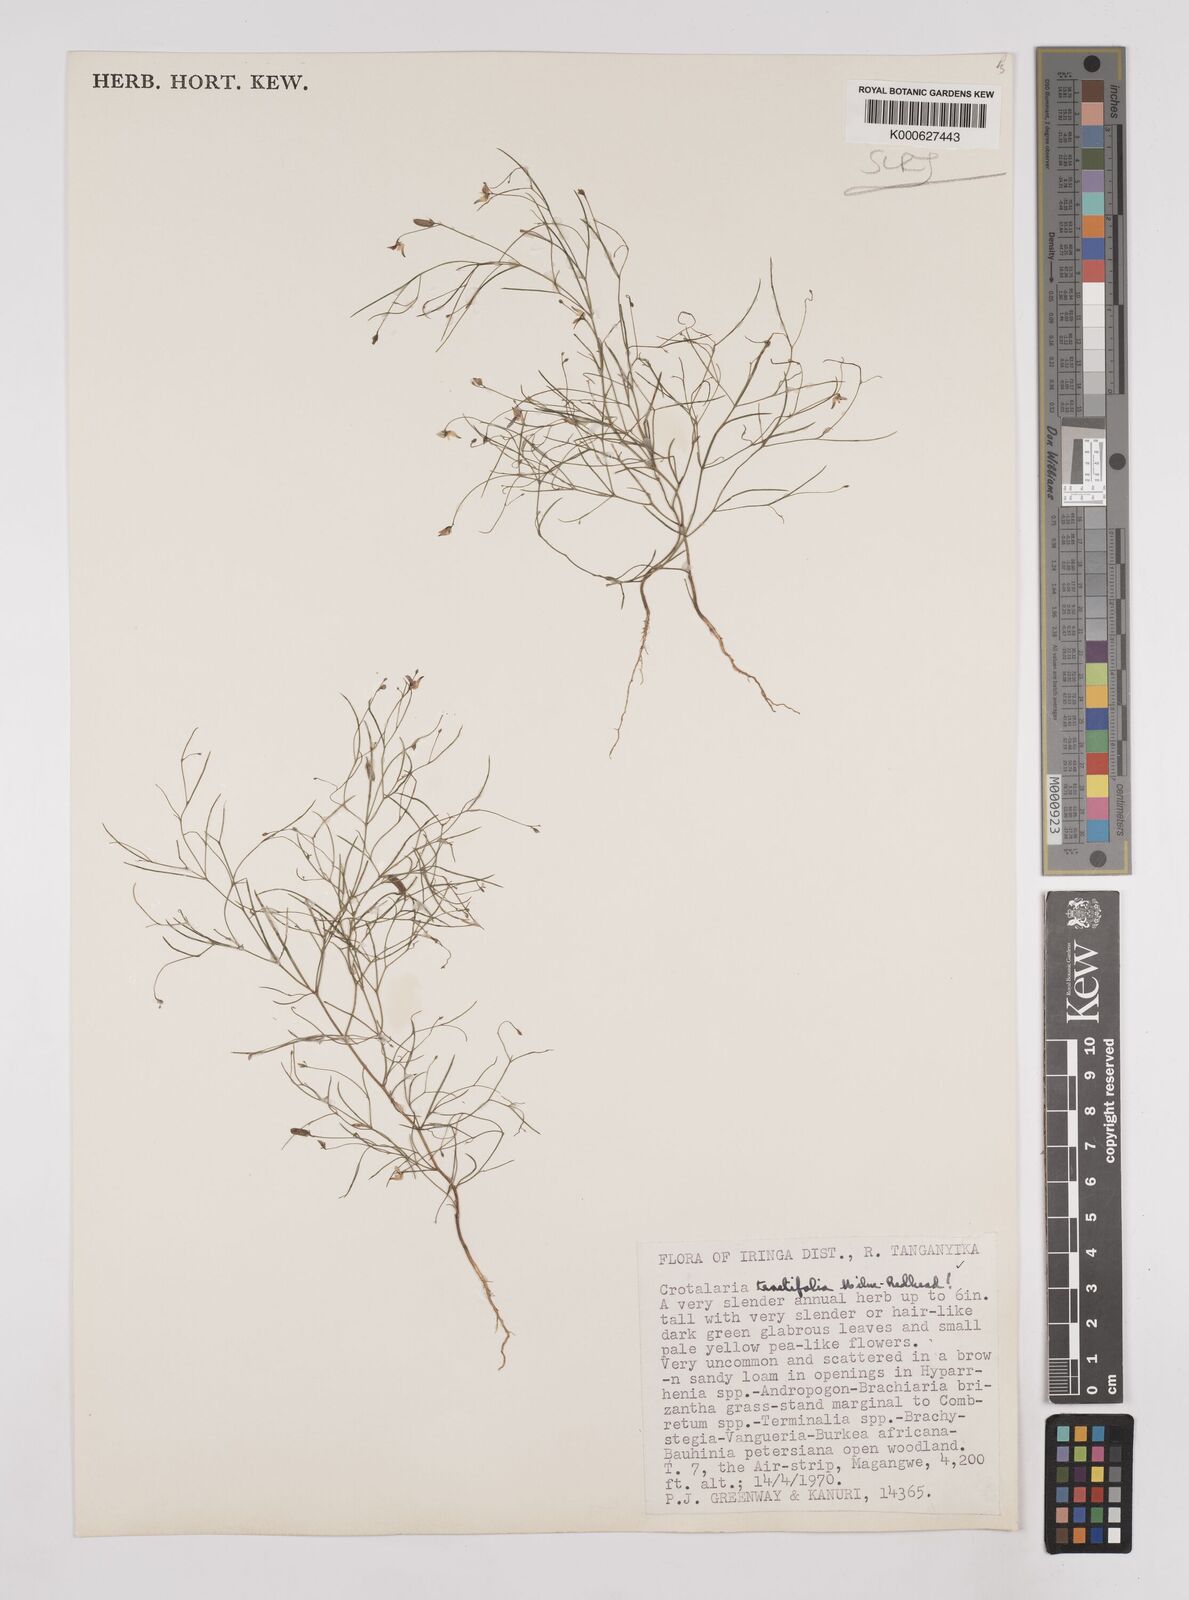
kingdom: Plantae
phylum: Tracheophyta
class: Magnoliopsida
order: Fabales
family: Fabaceae
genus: Crotalaria
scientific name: Crotalaria teretifolia
